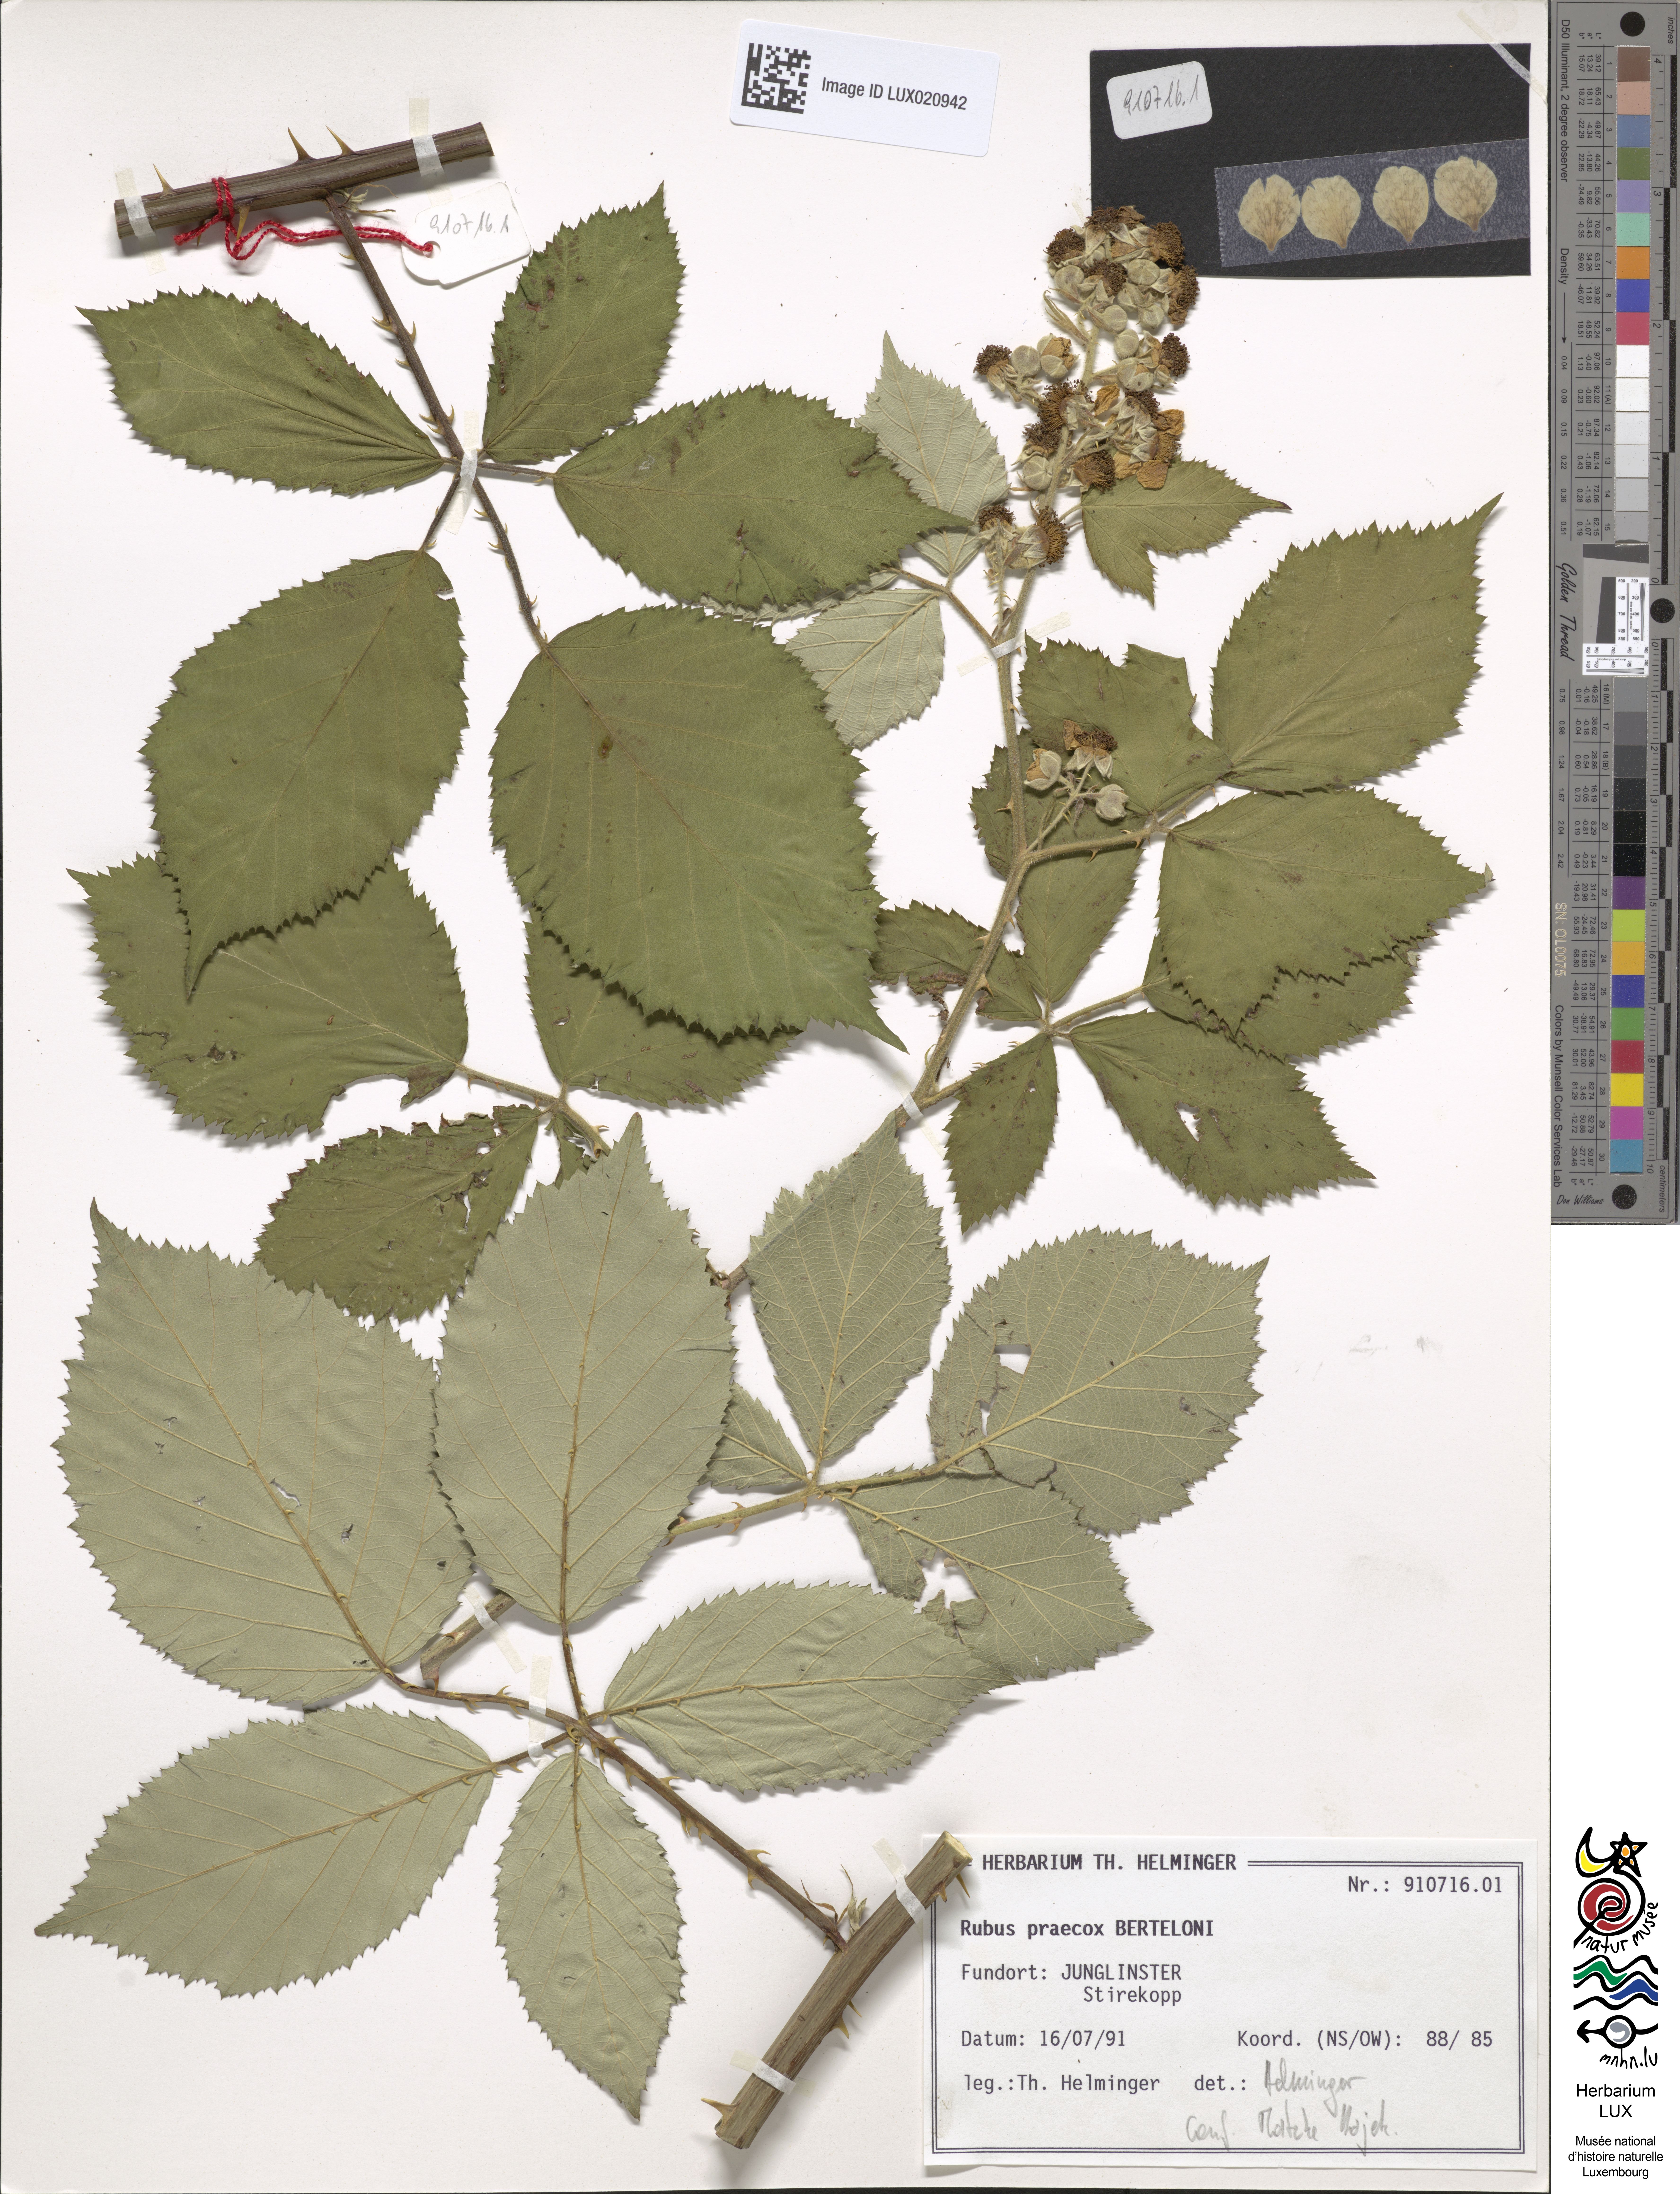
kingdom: Plantae
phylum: Tracheophyta
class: Magnoliopsida
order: Rosales
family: Rosaceae
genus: Rubus
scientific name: Rubus praecox
